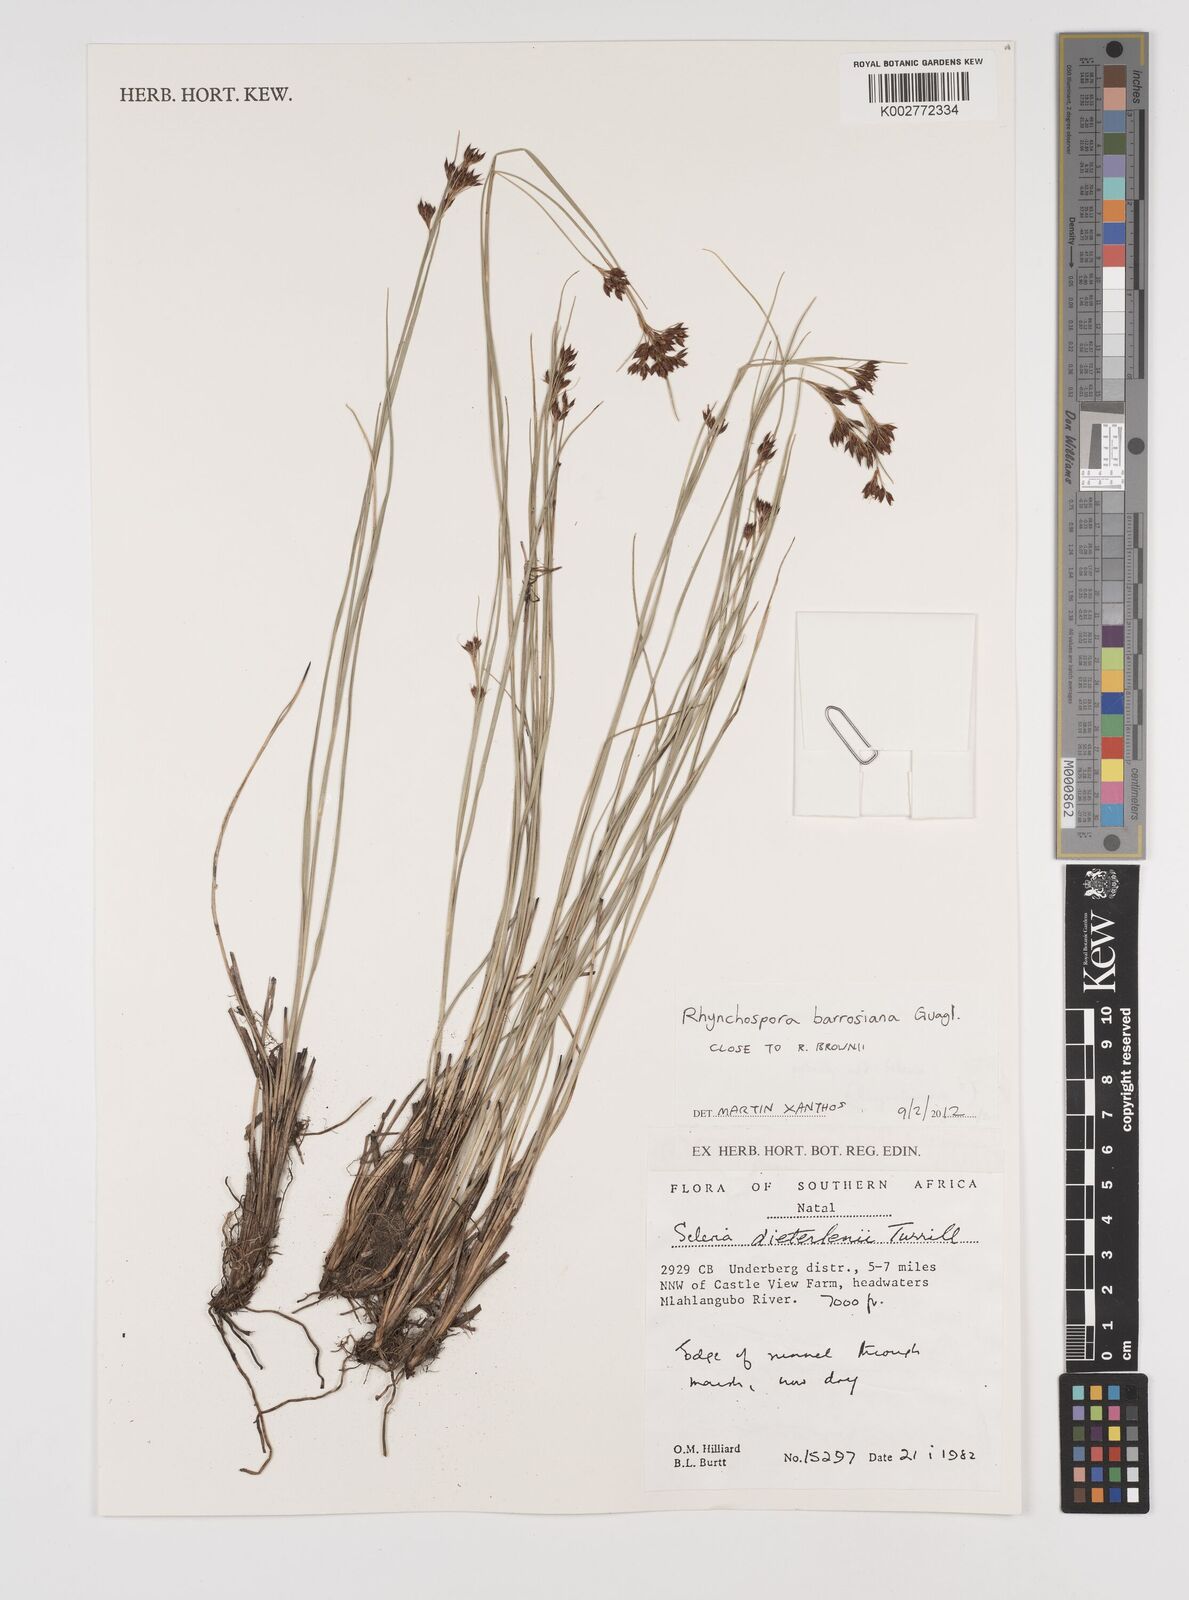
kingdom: Plantae
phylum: Tracheophyta
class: Liliopsida
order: Poales
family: Cyperaceae
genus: Rhynchospora
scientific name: Rhynchospora barrosiana
